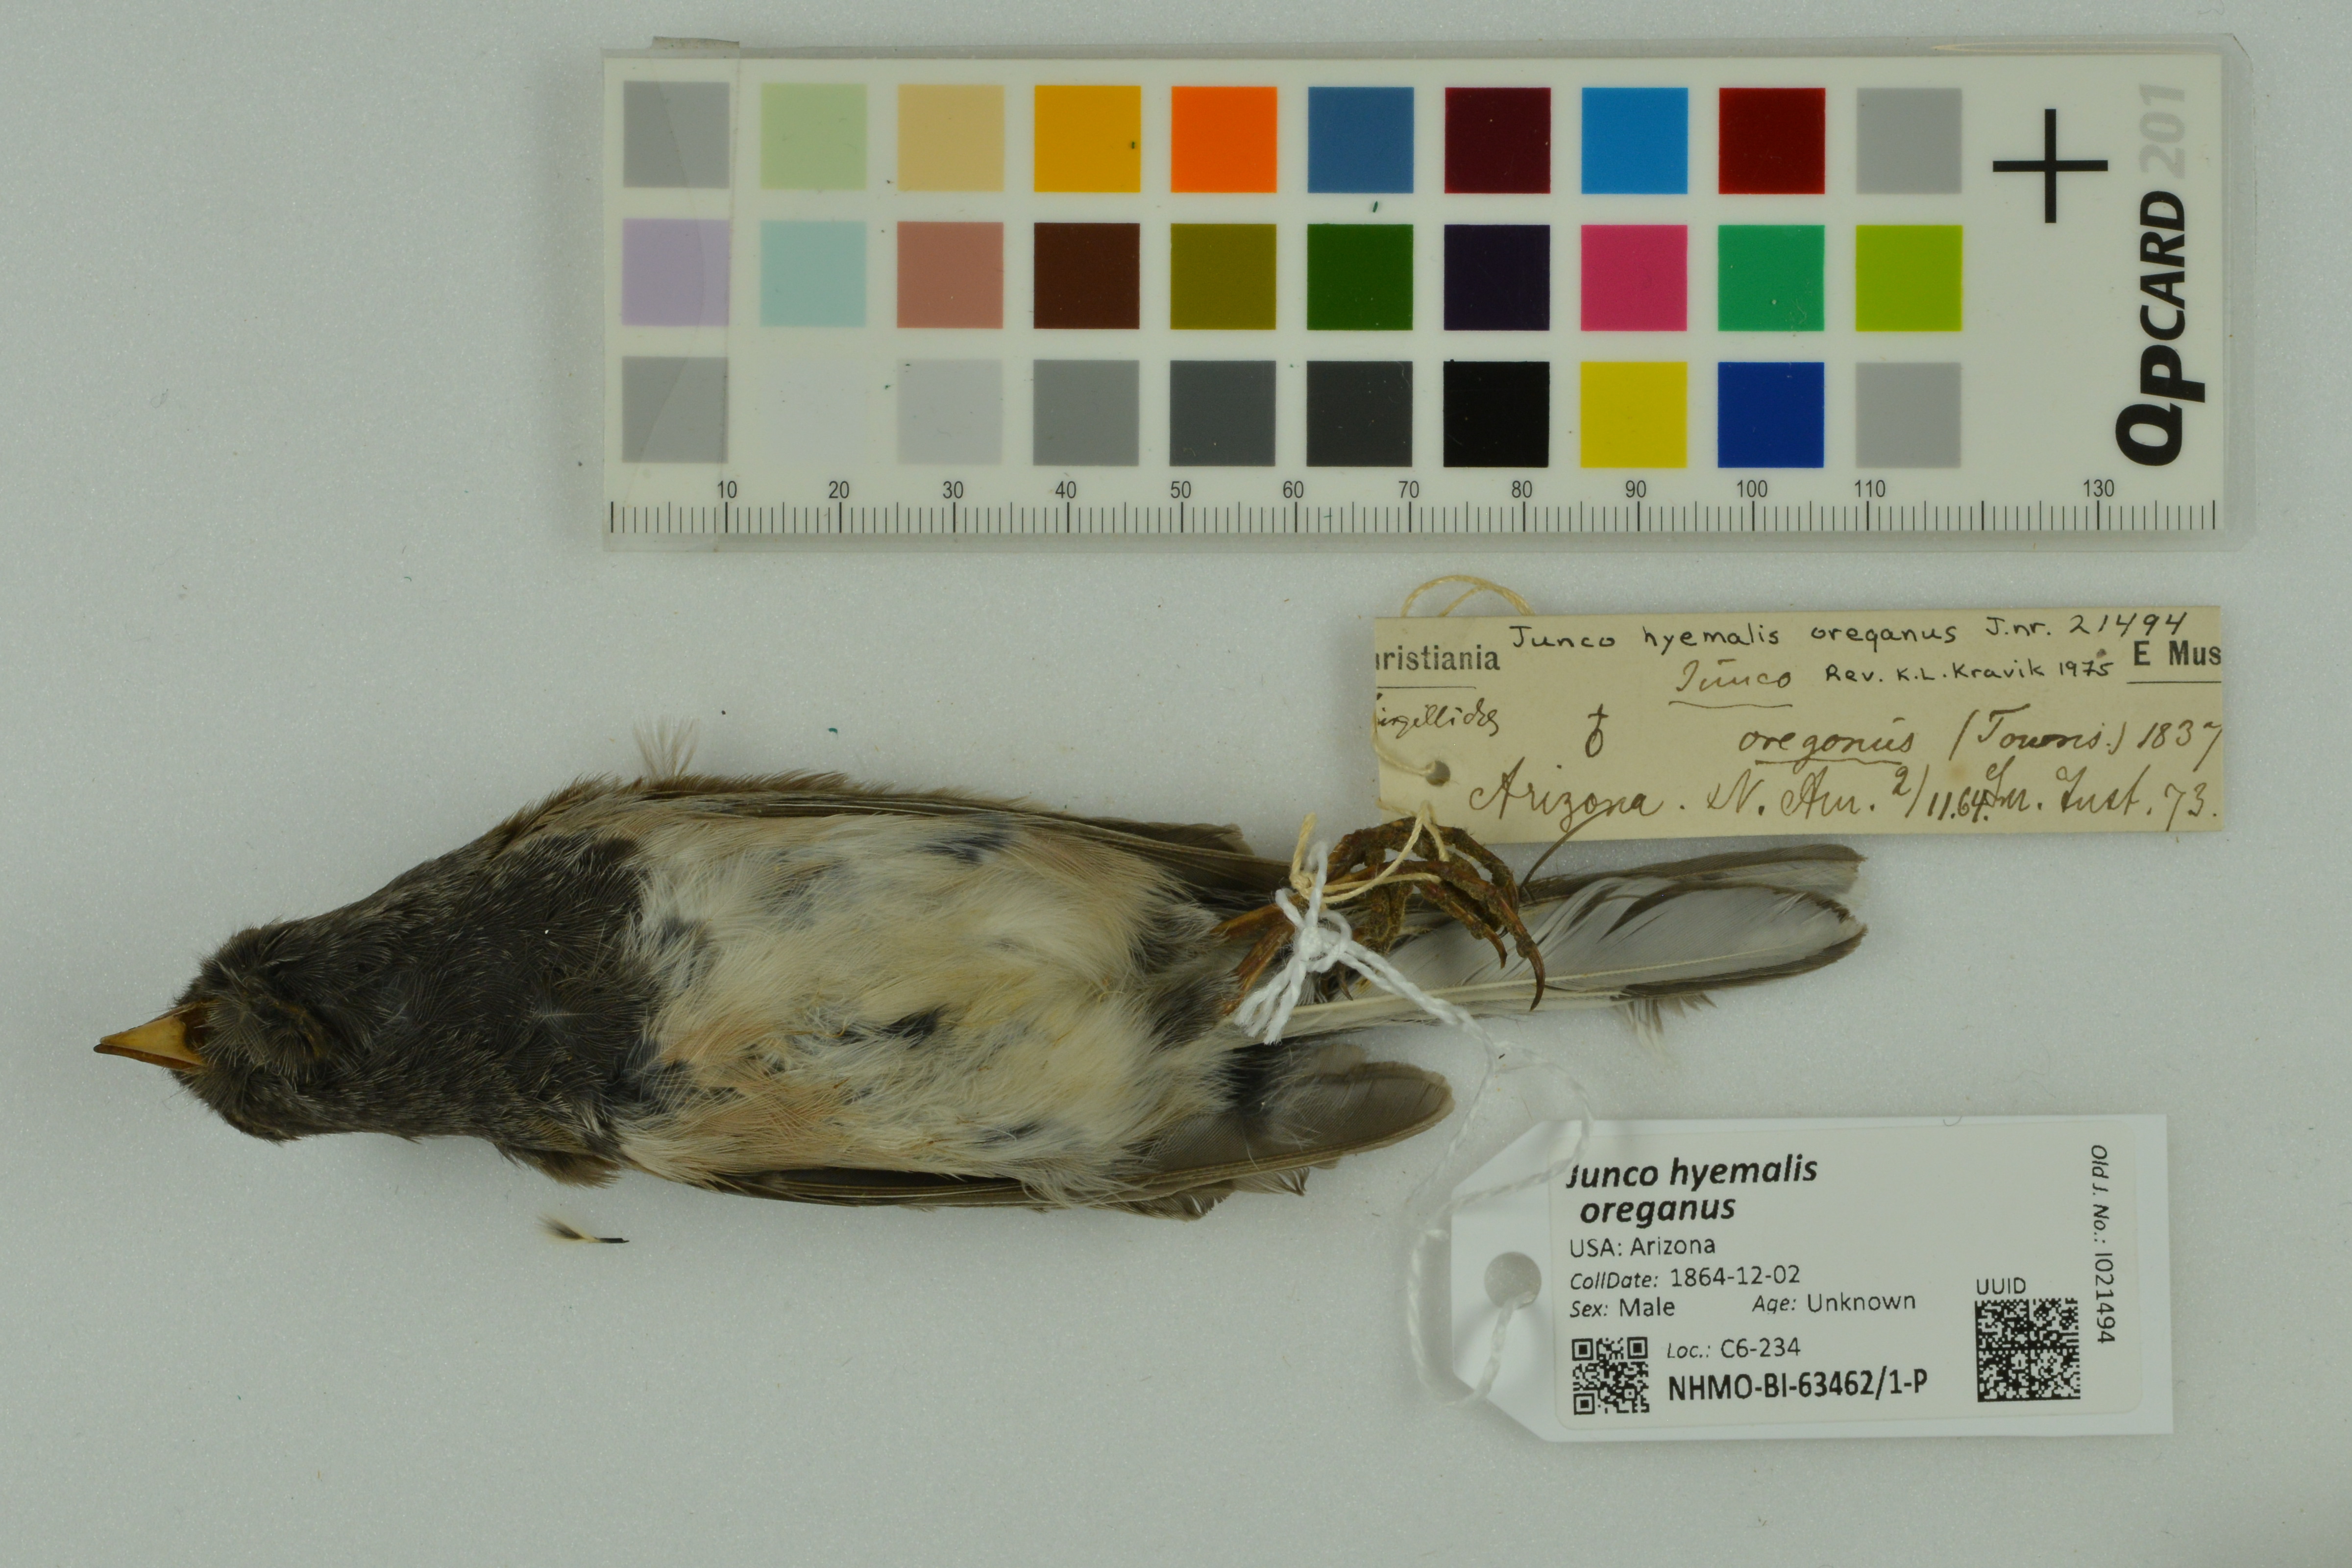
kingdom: Animalia
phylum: Chordata
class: Aves
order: Passeriformes
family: Passerellidae
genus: Junco
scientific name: Junco hyemalis
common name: Dark-eyed junco
